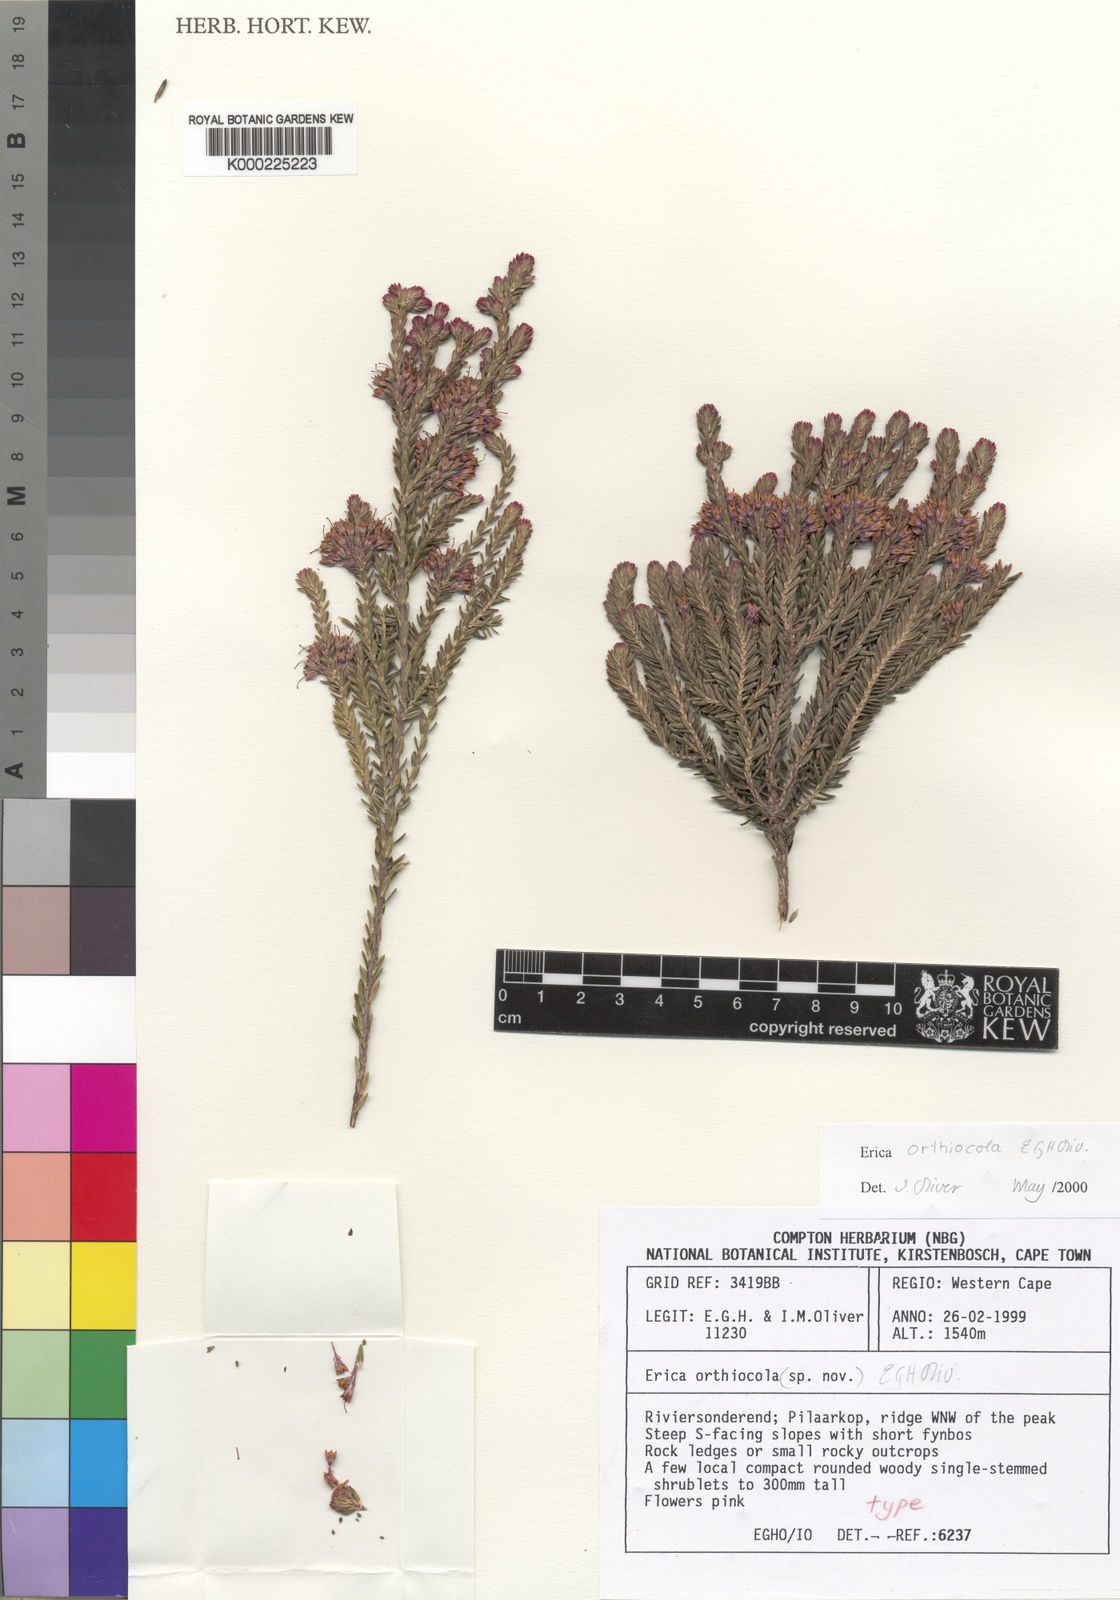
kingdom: Plantae
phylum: Tracheophyta
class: Magnoliopsida
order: Ericales
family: Ericaceae
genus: Erica
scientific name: Erica orthiocola
